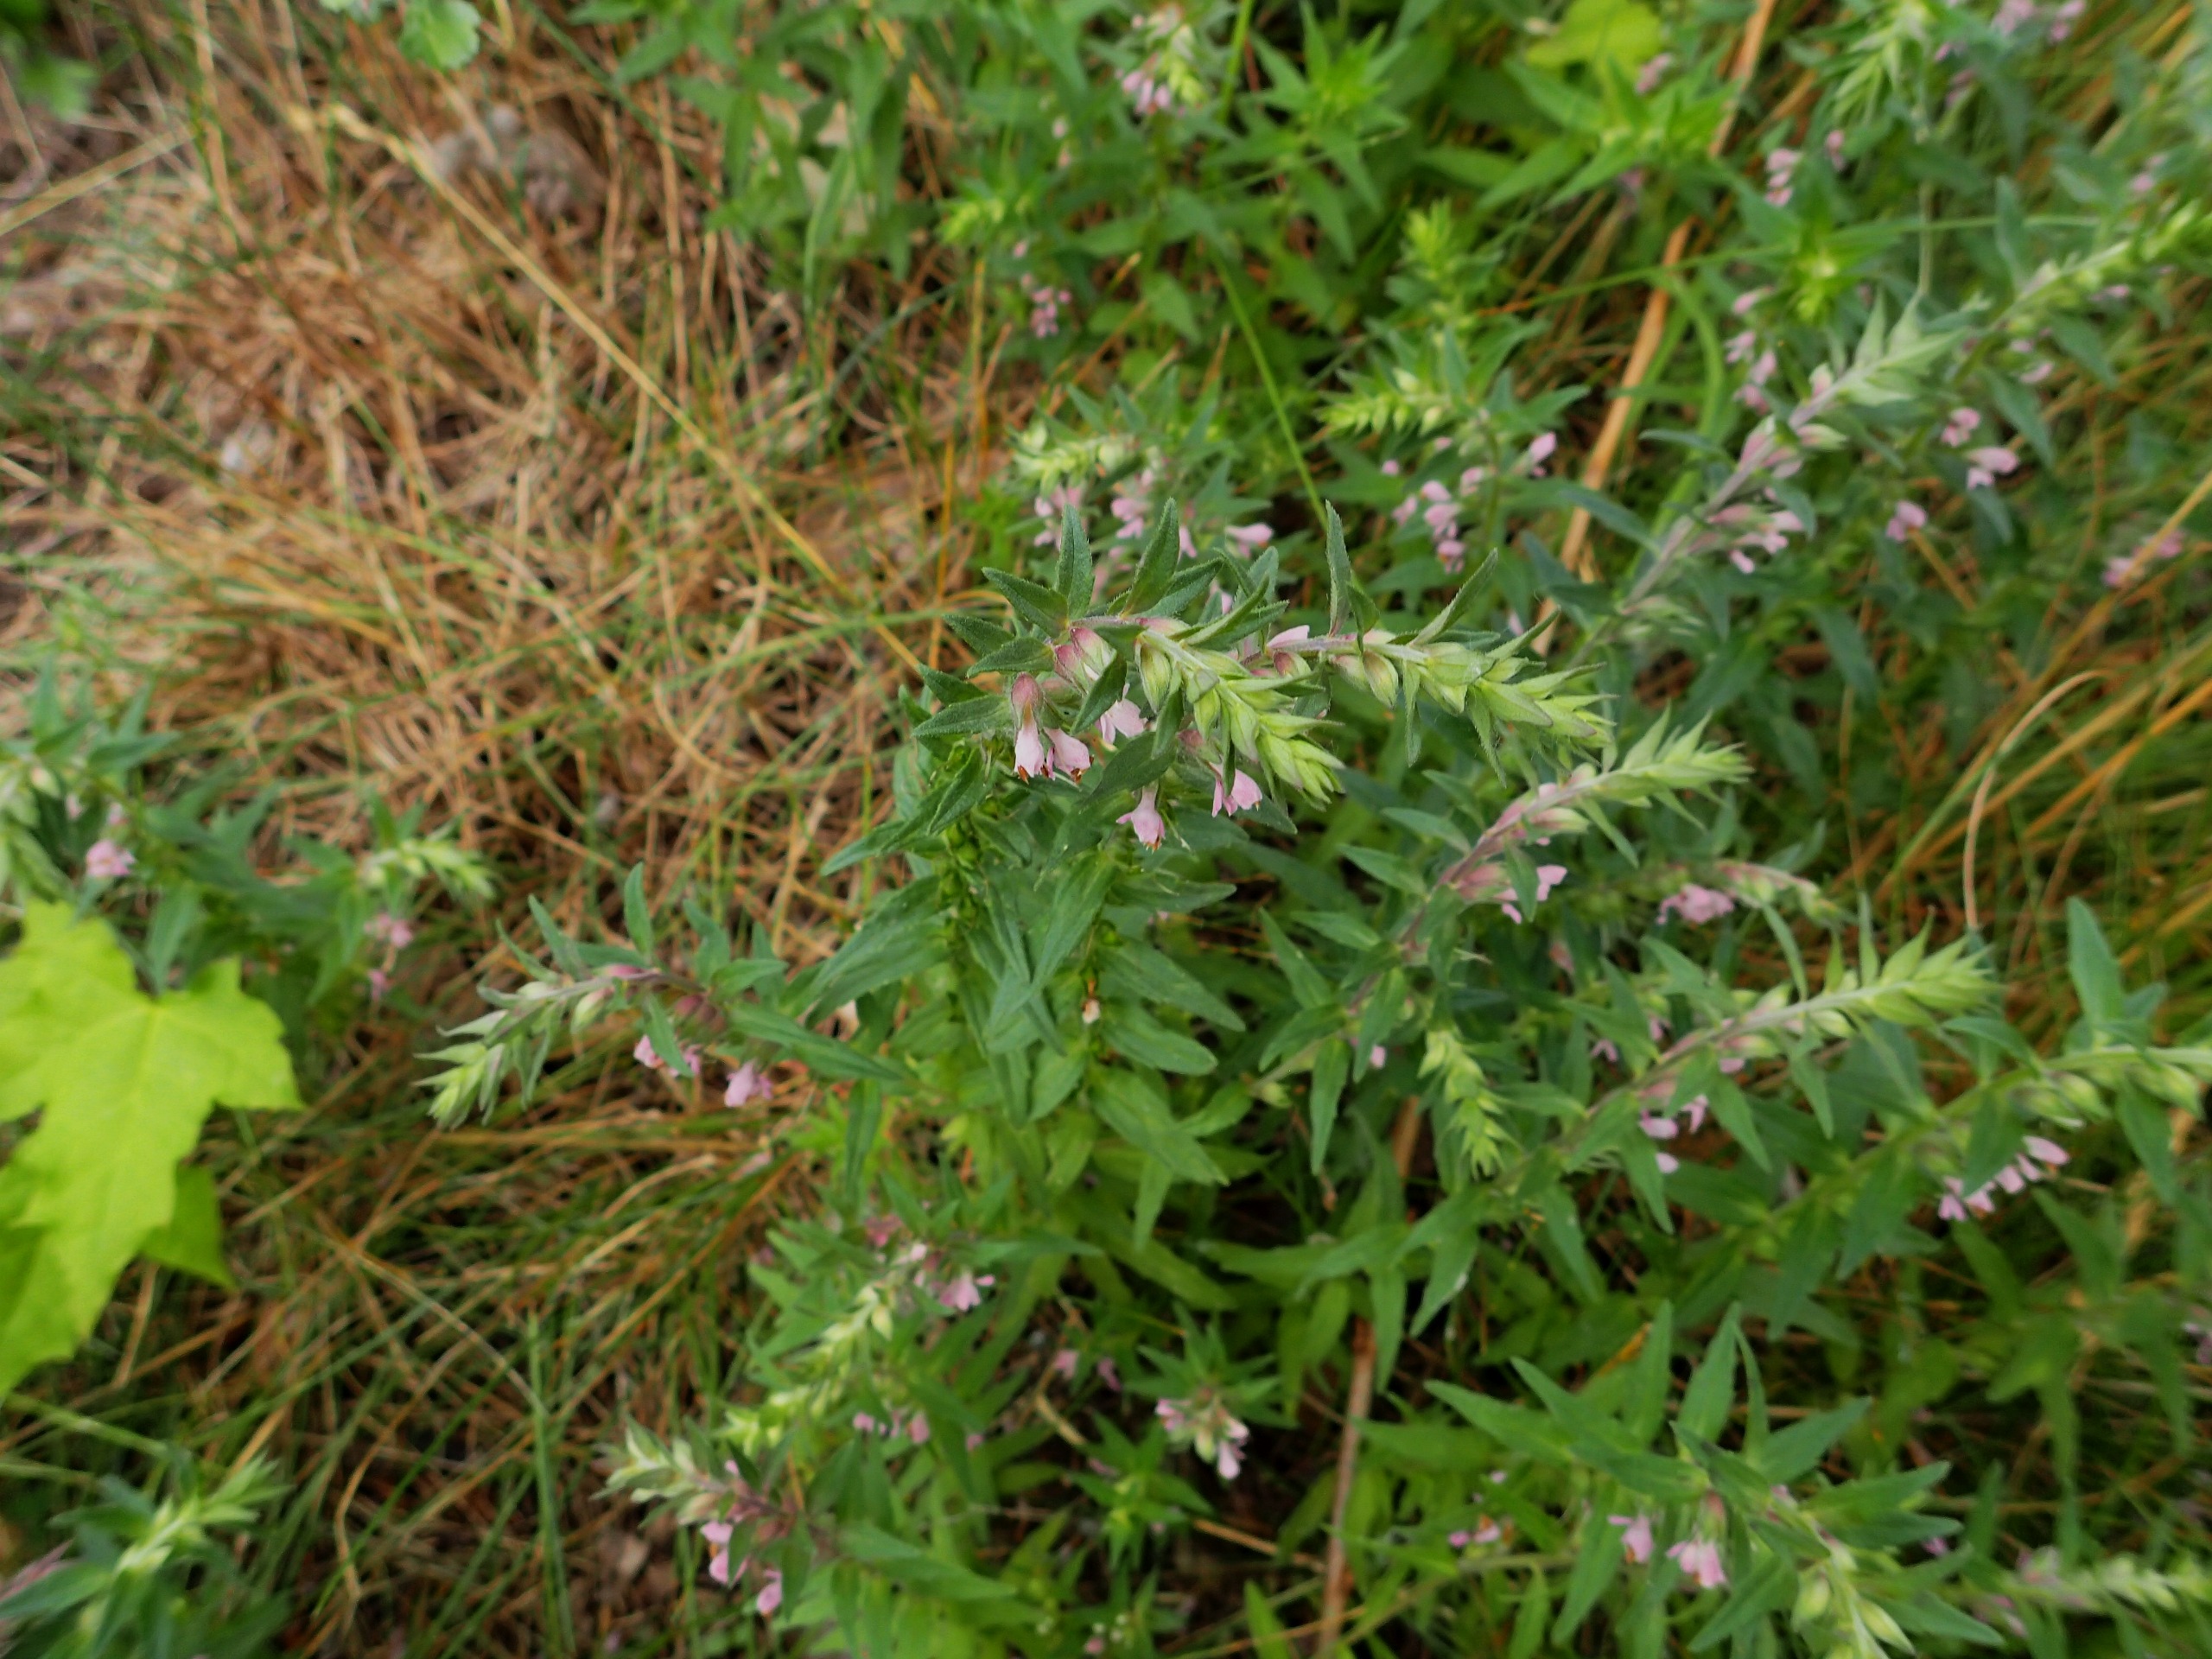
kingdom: Plantae
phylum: Tracheophyta
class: Magnoliopsida
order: Lamiales
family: Orobanchaceae
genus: Odontites
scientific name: Odontites vernus
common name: Mark-rødtop
